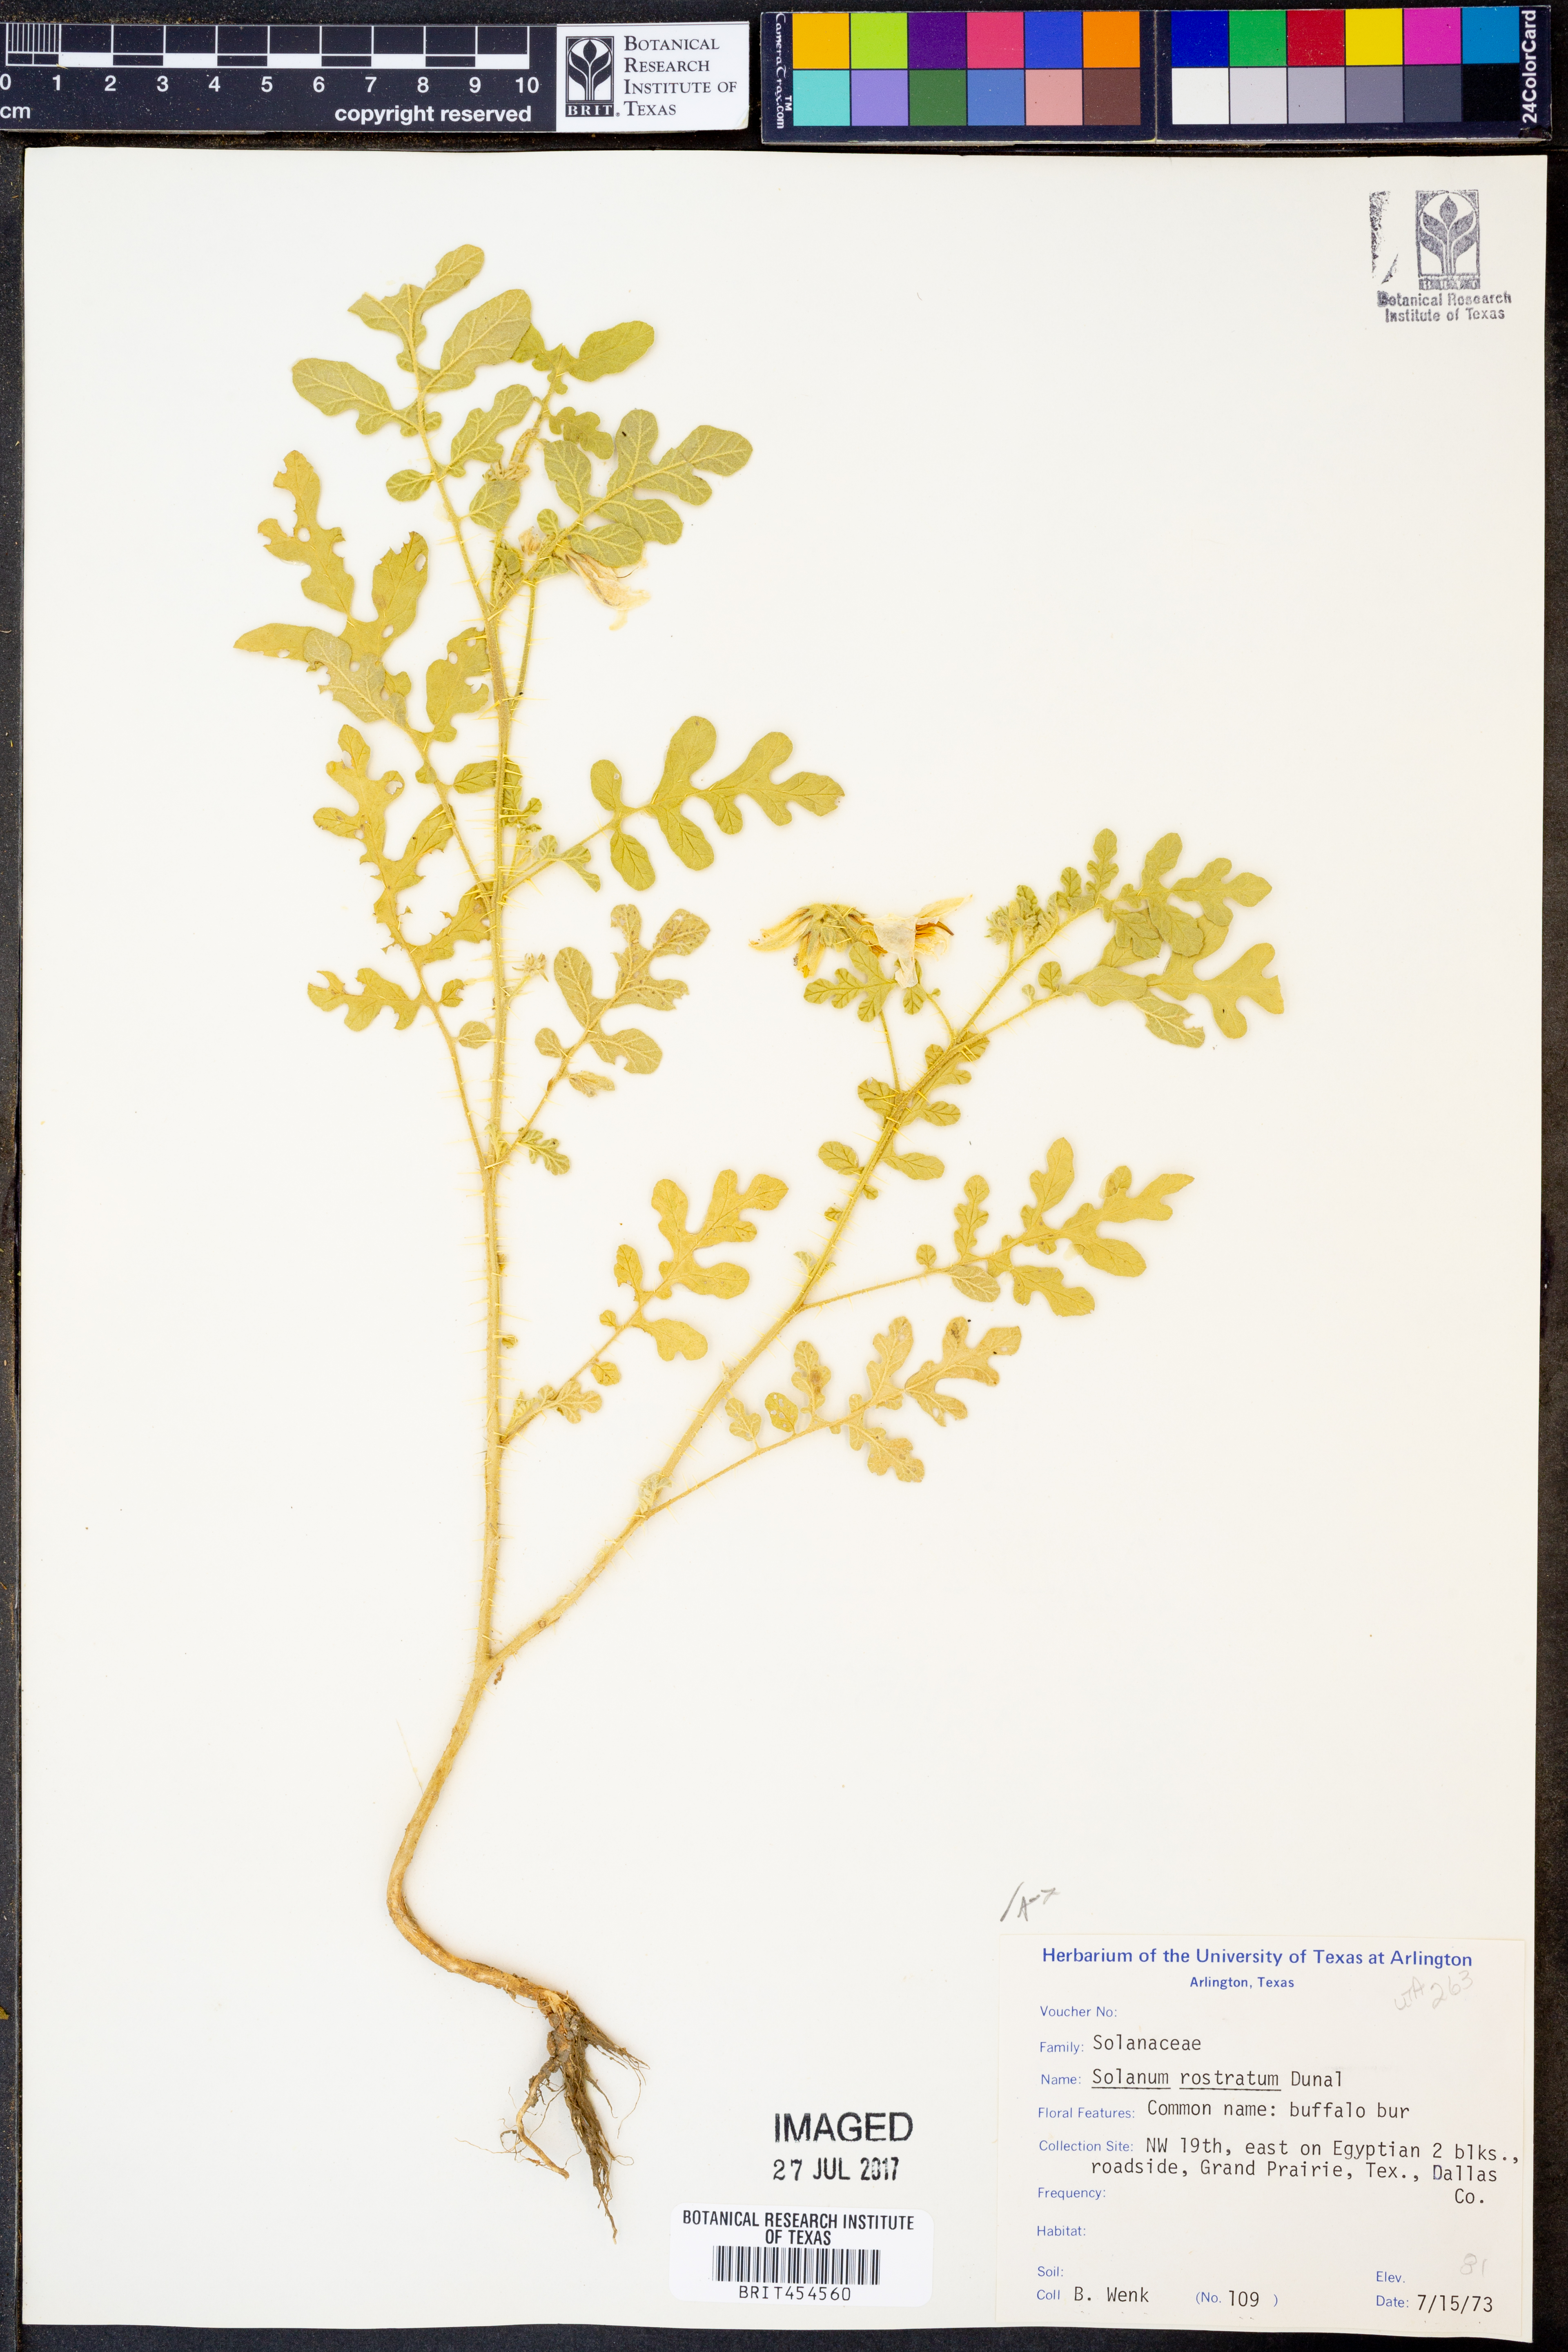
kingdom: Plantae
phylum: Tracheophyta
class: Magnoliopsida
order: Solanales
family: Solanaceae
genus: Solanum
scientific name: Solanum angustifolium
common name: Buffalobur nightshade
